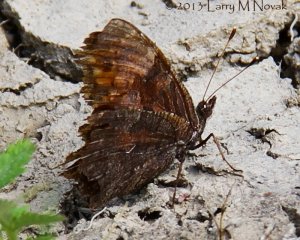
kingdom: Animalia
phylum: Arthropoda
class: Insecta
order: Lepidoptera
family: Nymphalidae
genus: Polygonia
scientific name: Polygonia progne
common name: Gray Comma
